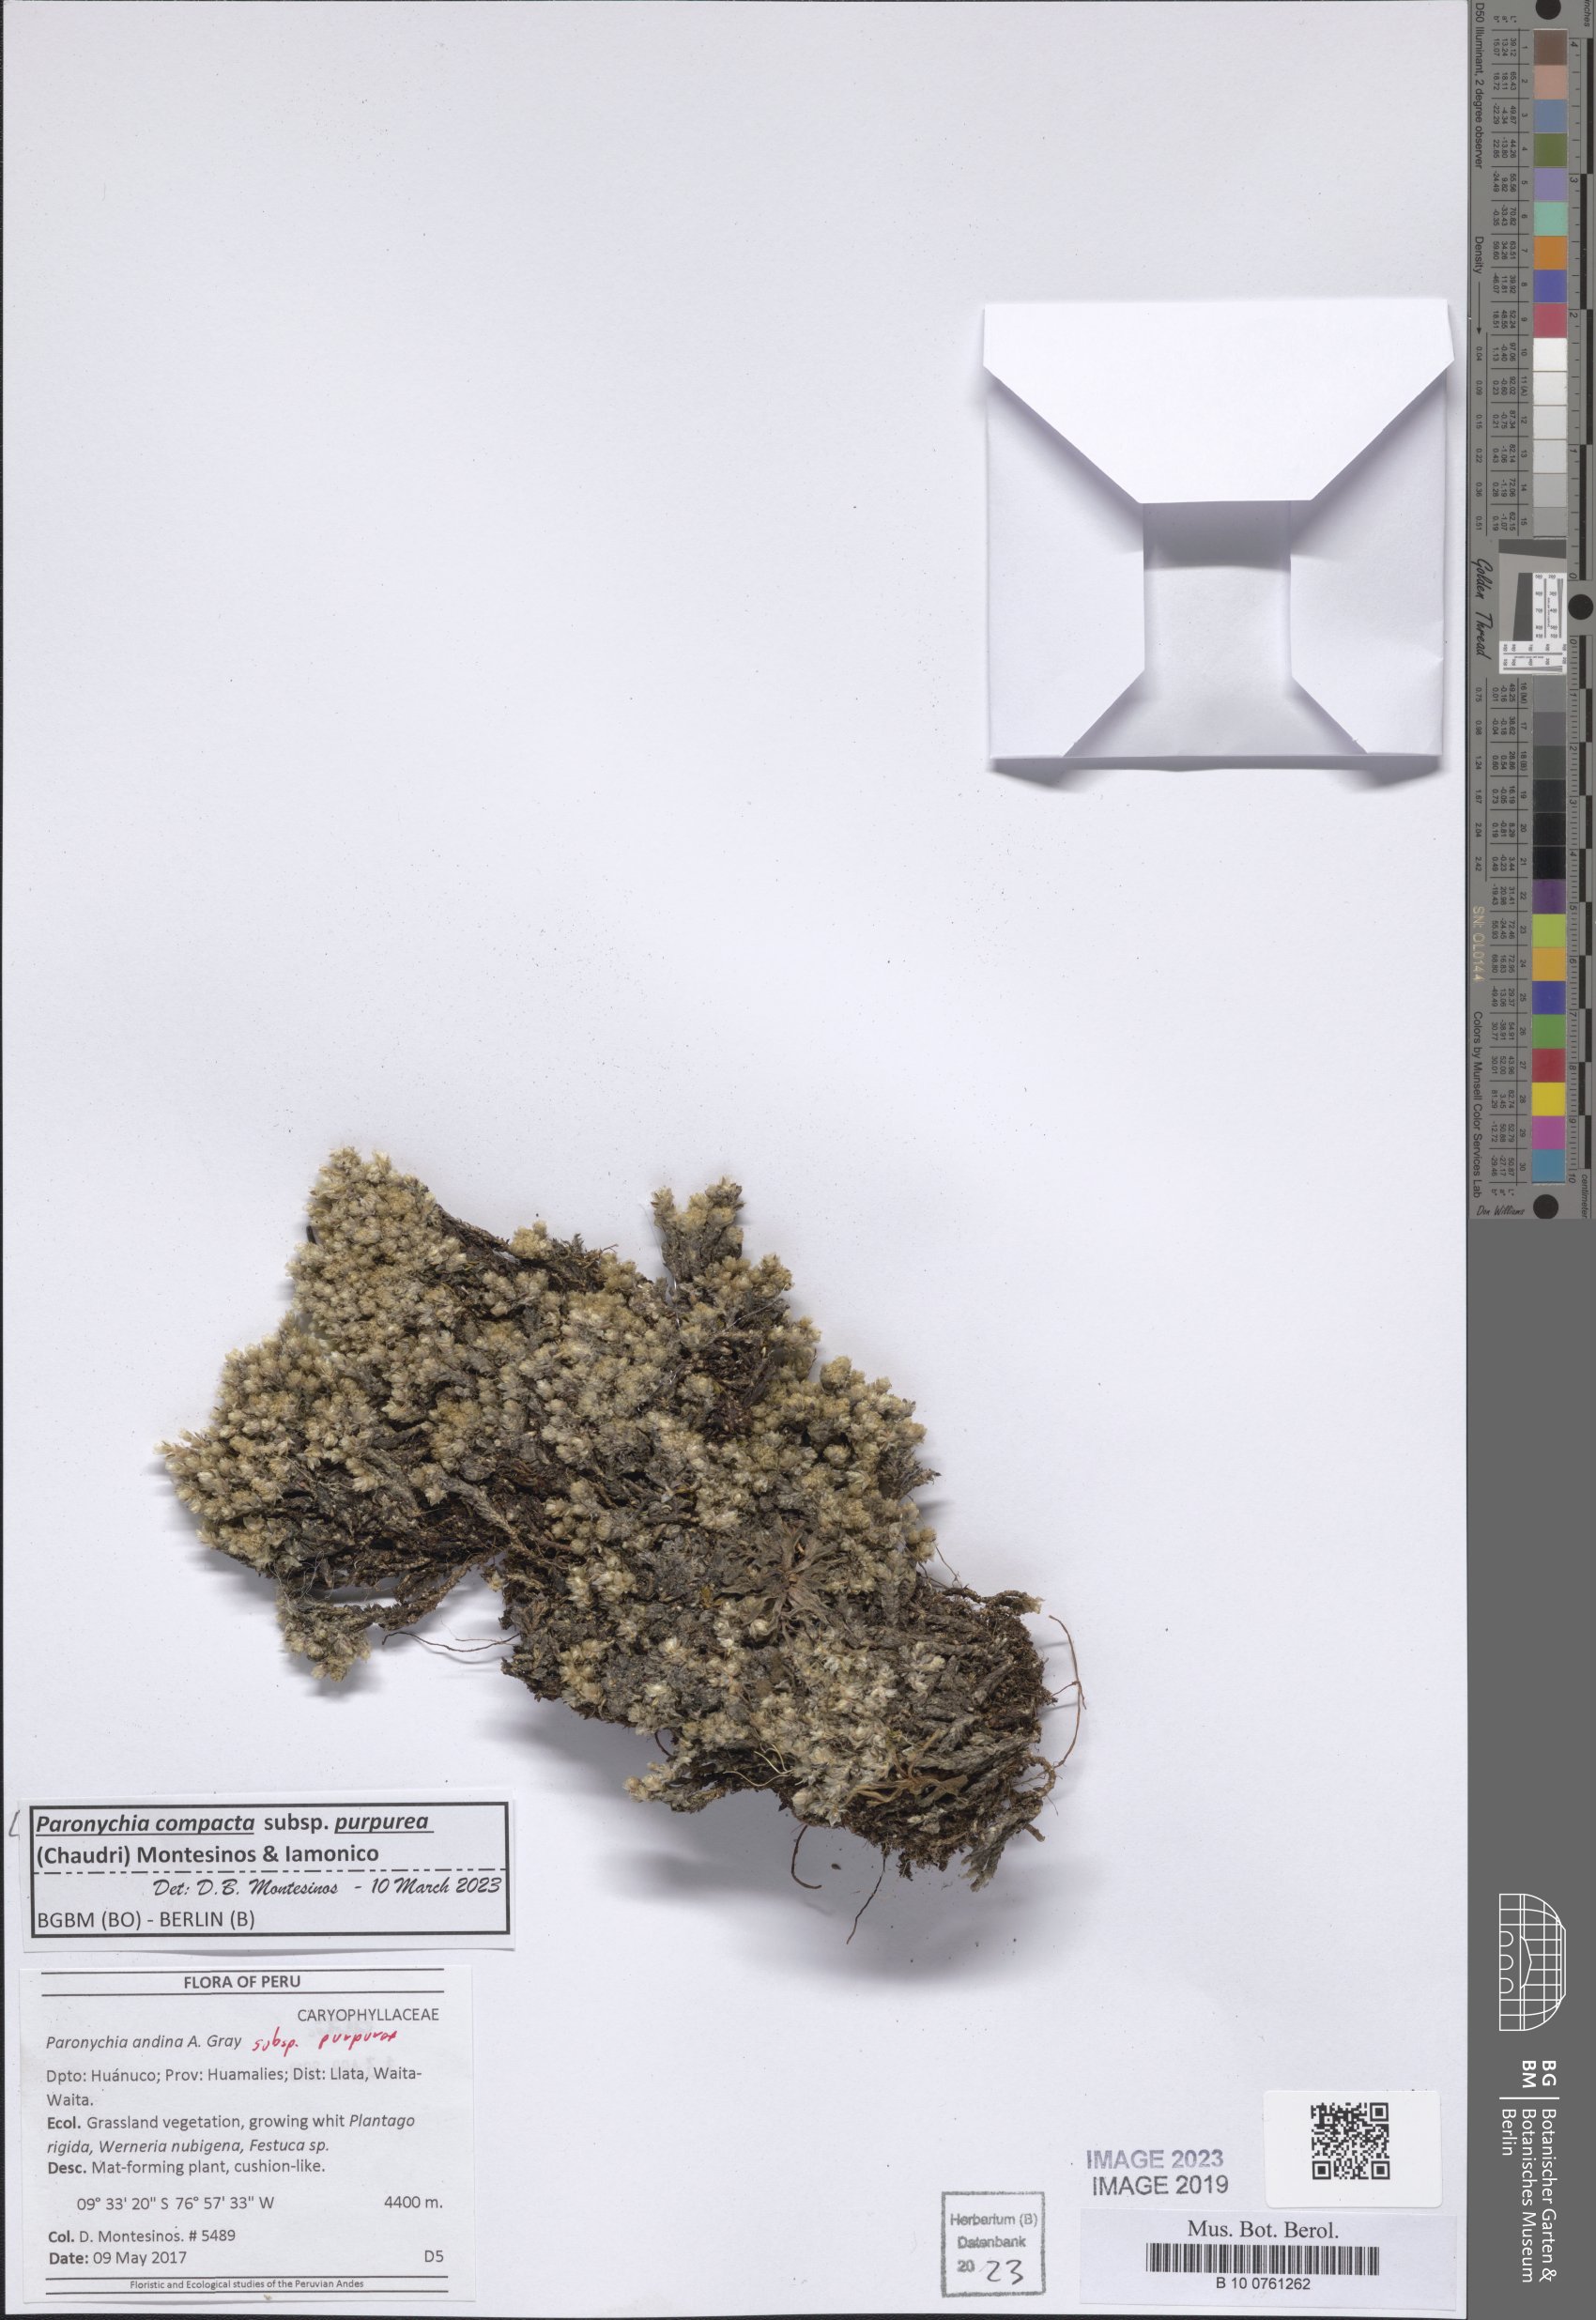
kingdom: Plantae
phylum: Tracheophyta
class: Magnoliopsida
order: Caryophyllales
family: Caryophyllaceae
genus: Paronychia
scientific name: Paronychia
